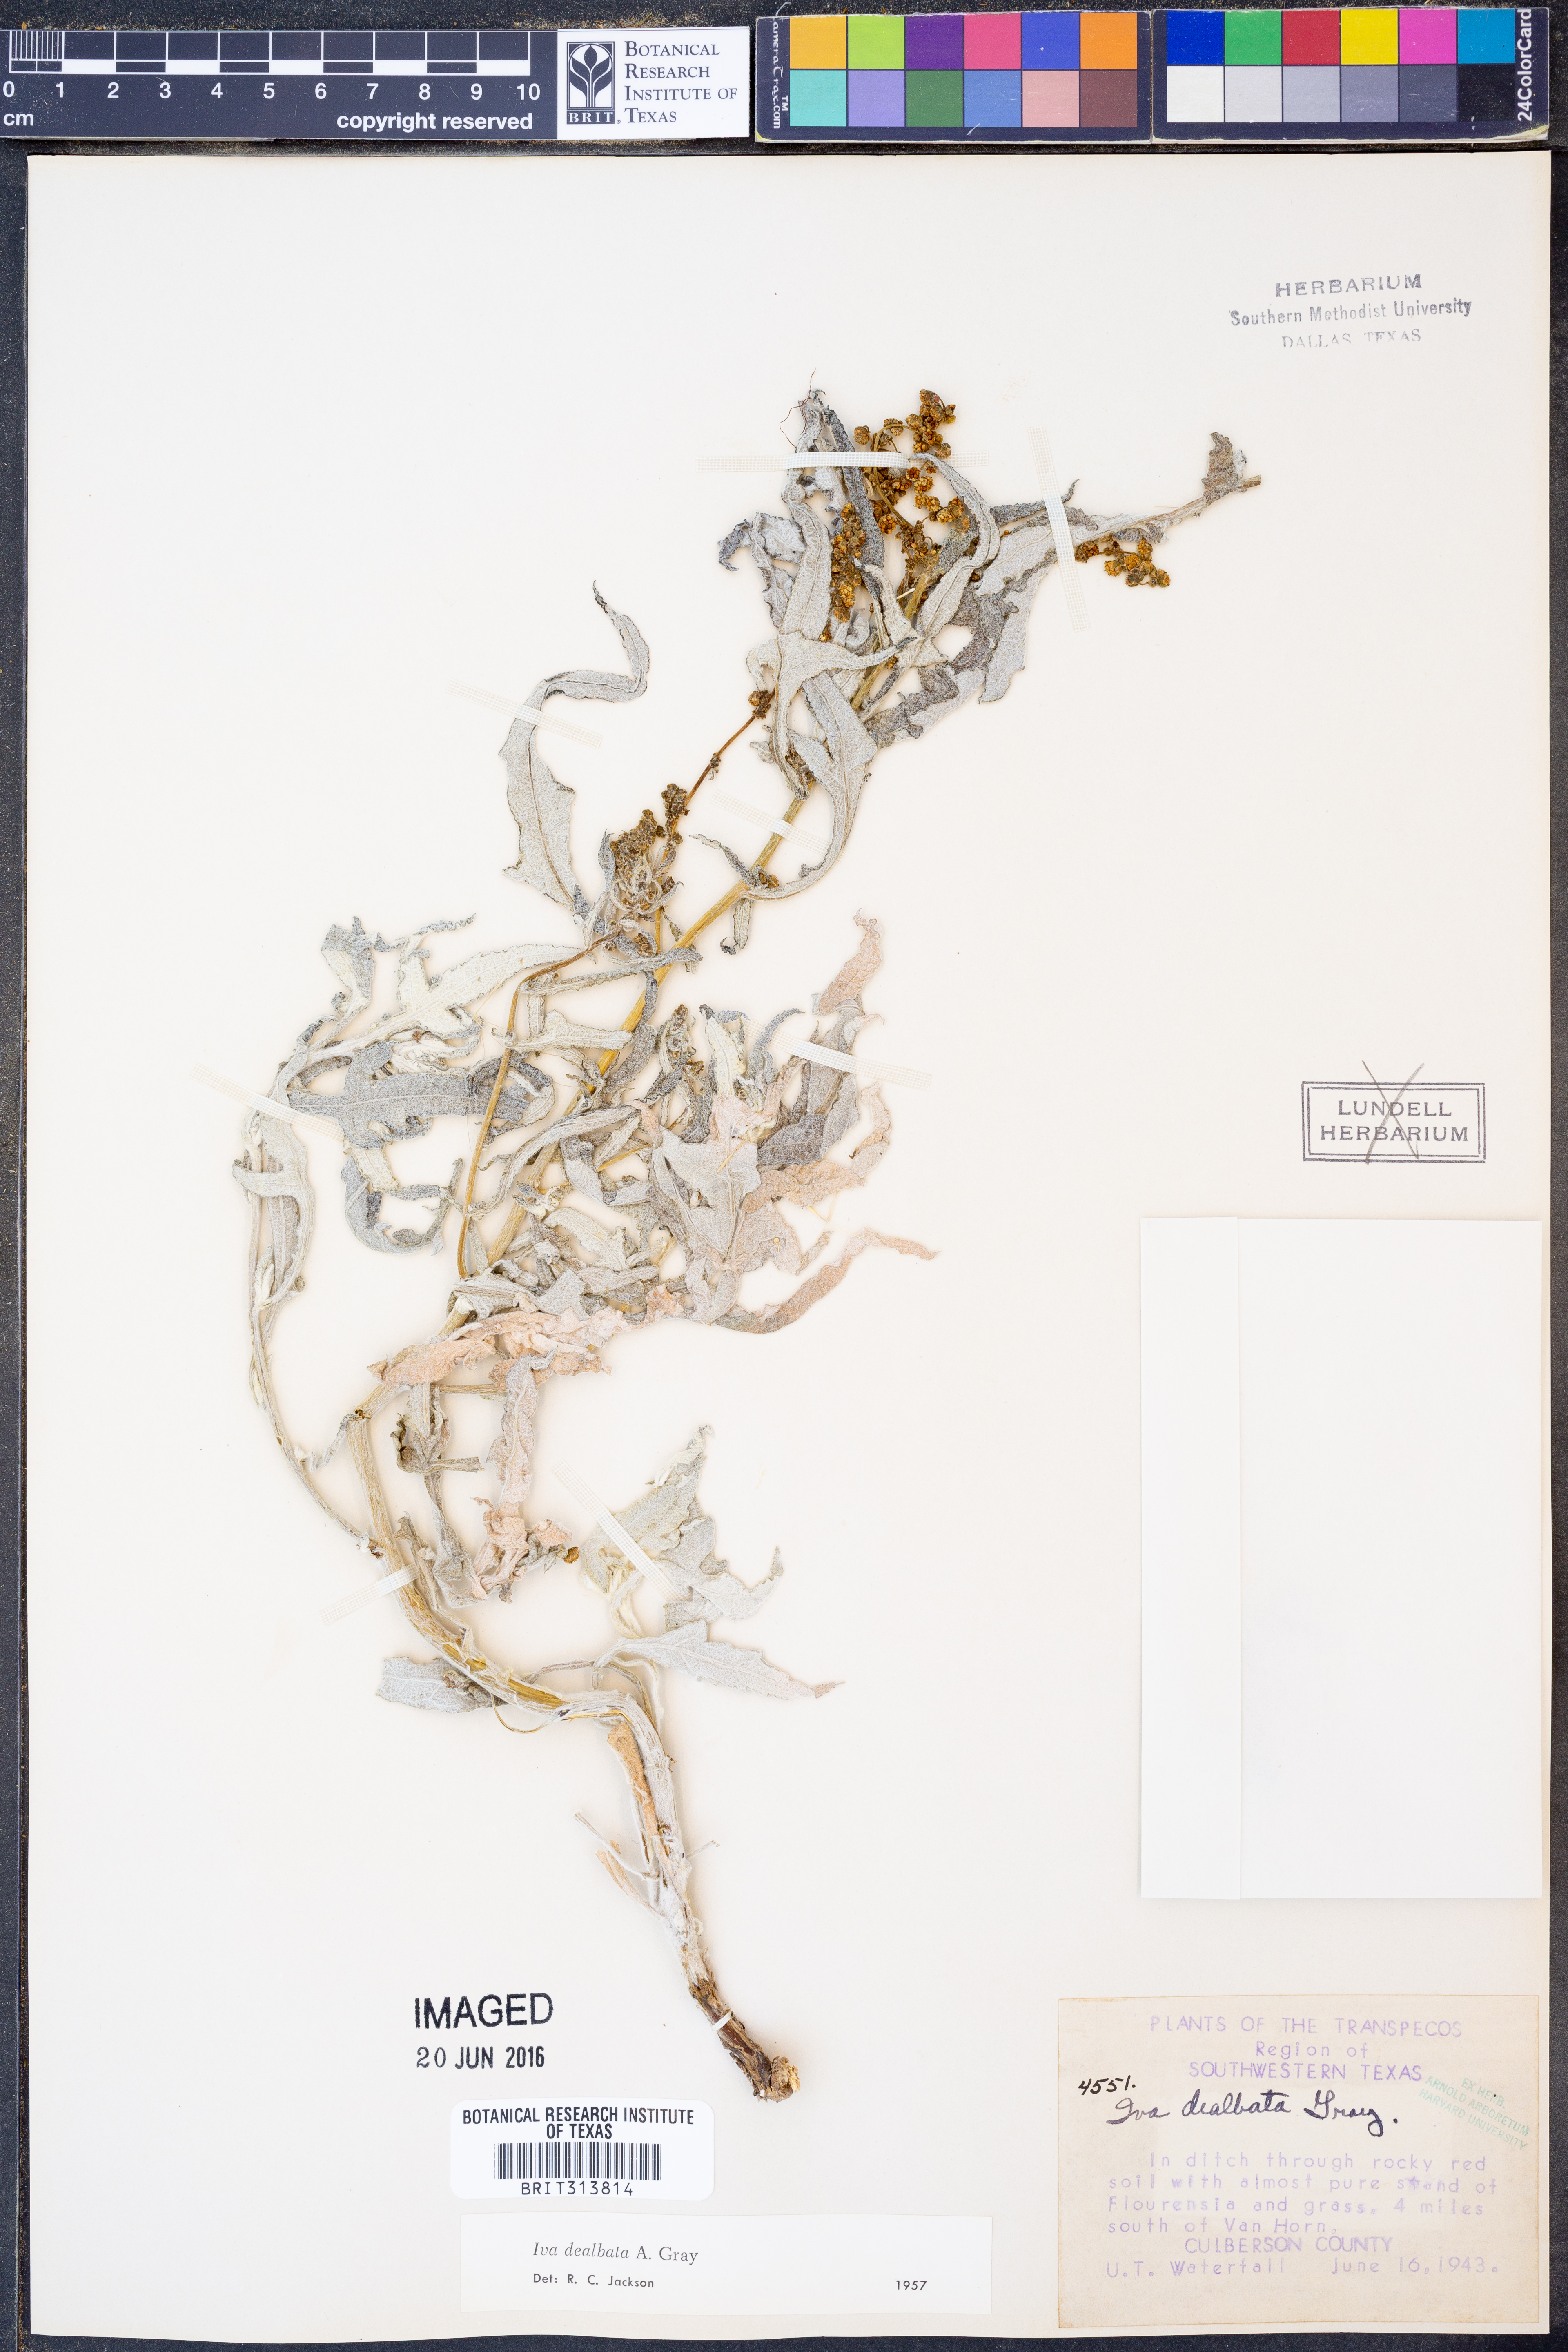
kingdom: Plantae
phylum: Tracheophyta
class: Magnoliopsida
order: Asterales
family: Asteraceae
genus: Euphrosyne
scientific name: Euphrosyne dealbata
